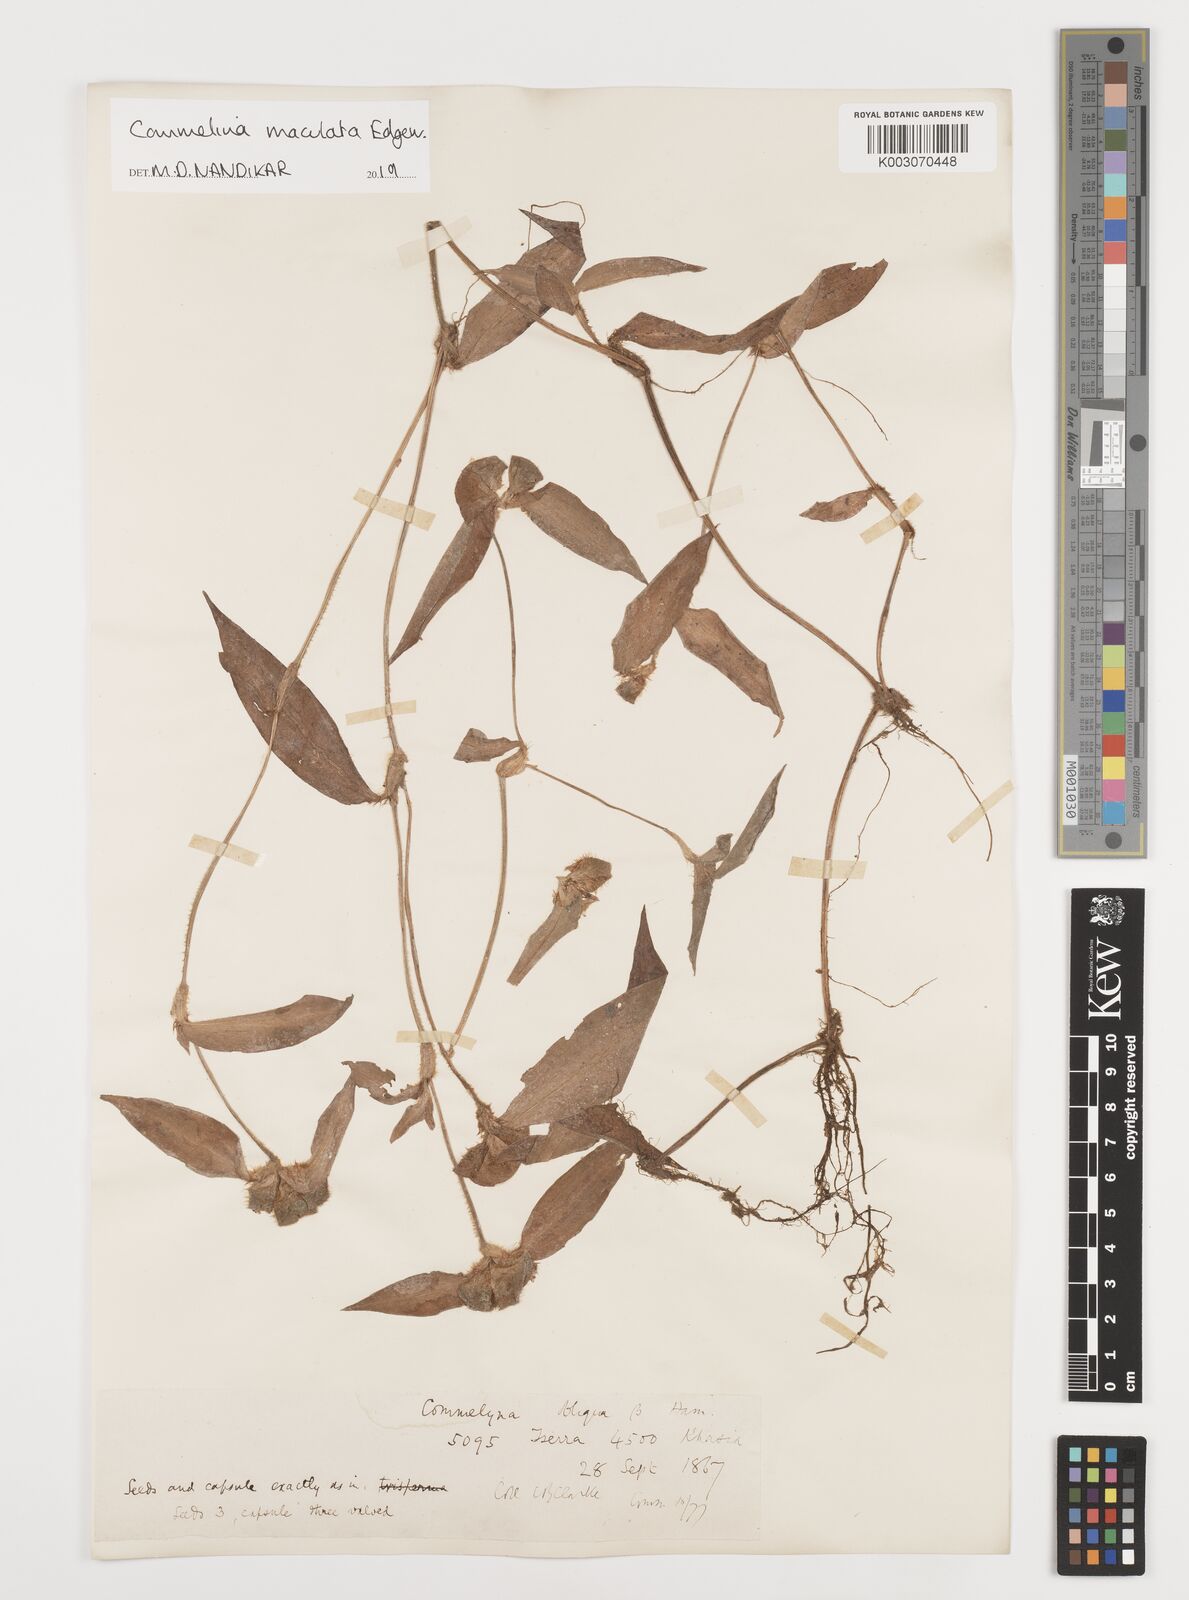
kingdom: Plantae
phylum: Tracheophyta
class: Liliopsida
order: Commelinales
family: Commelinaceae
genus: Commelina
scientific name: Commelina maculata
